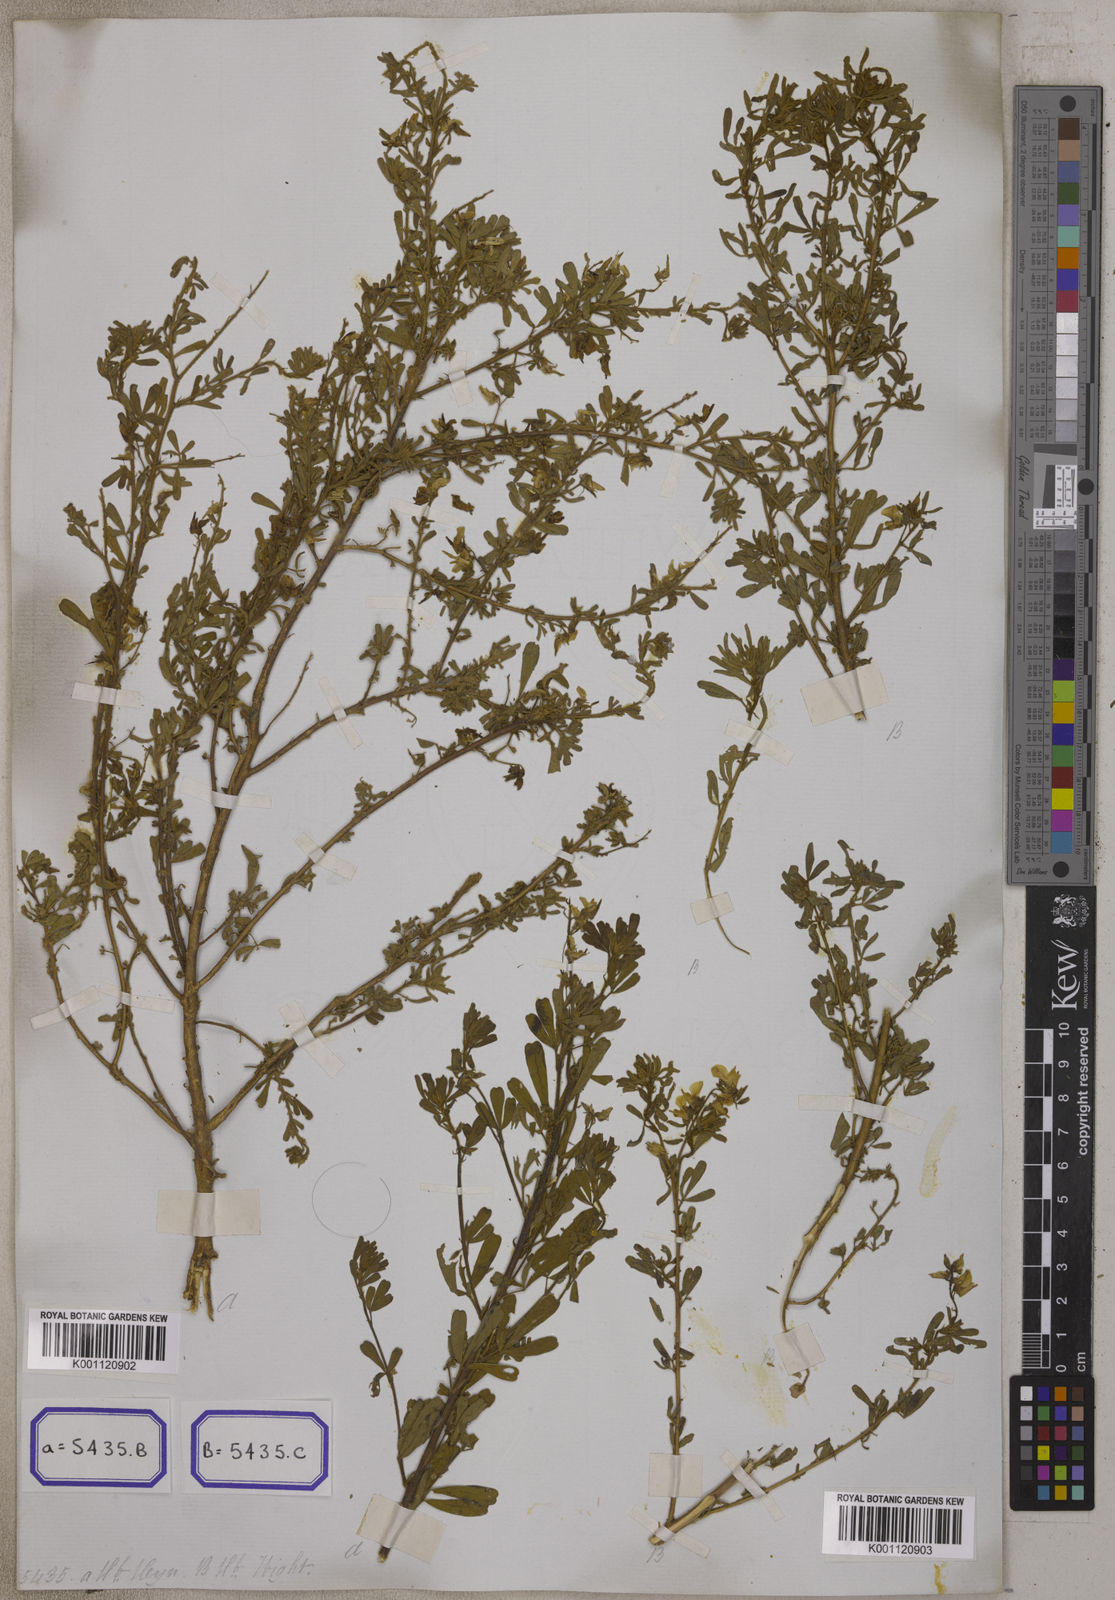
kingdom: Plantae
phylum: Tracheophyta
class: Magnoliopsida
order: Fabales
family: Fabaceae
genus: Crotalaria
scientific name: Crotalaria willdenowiana
